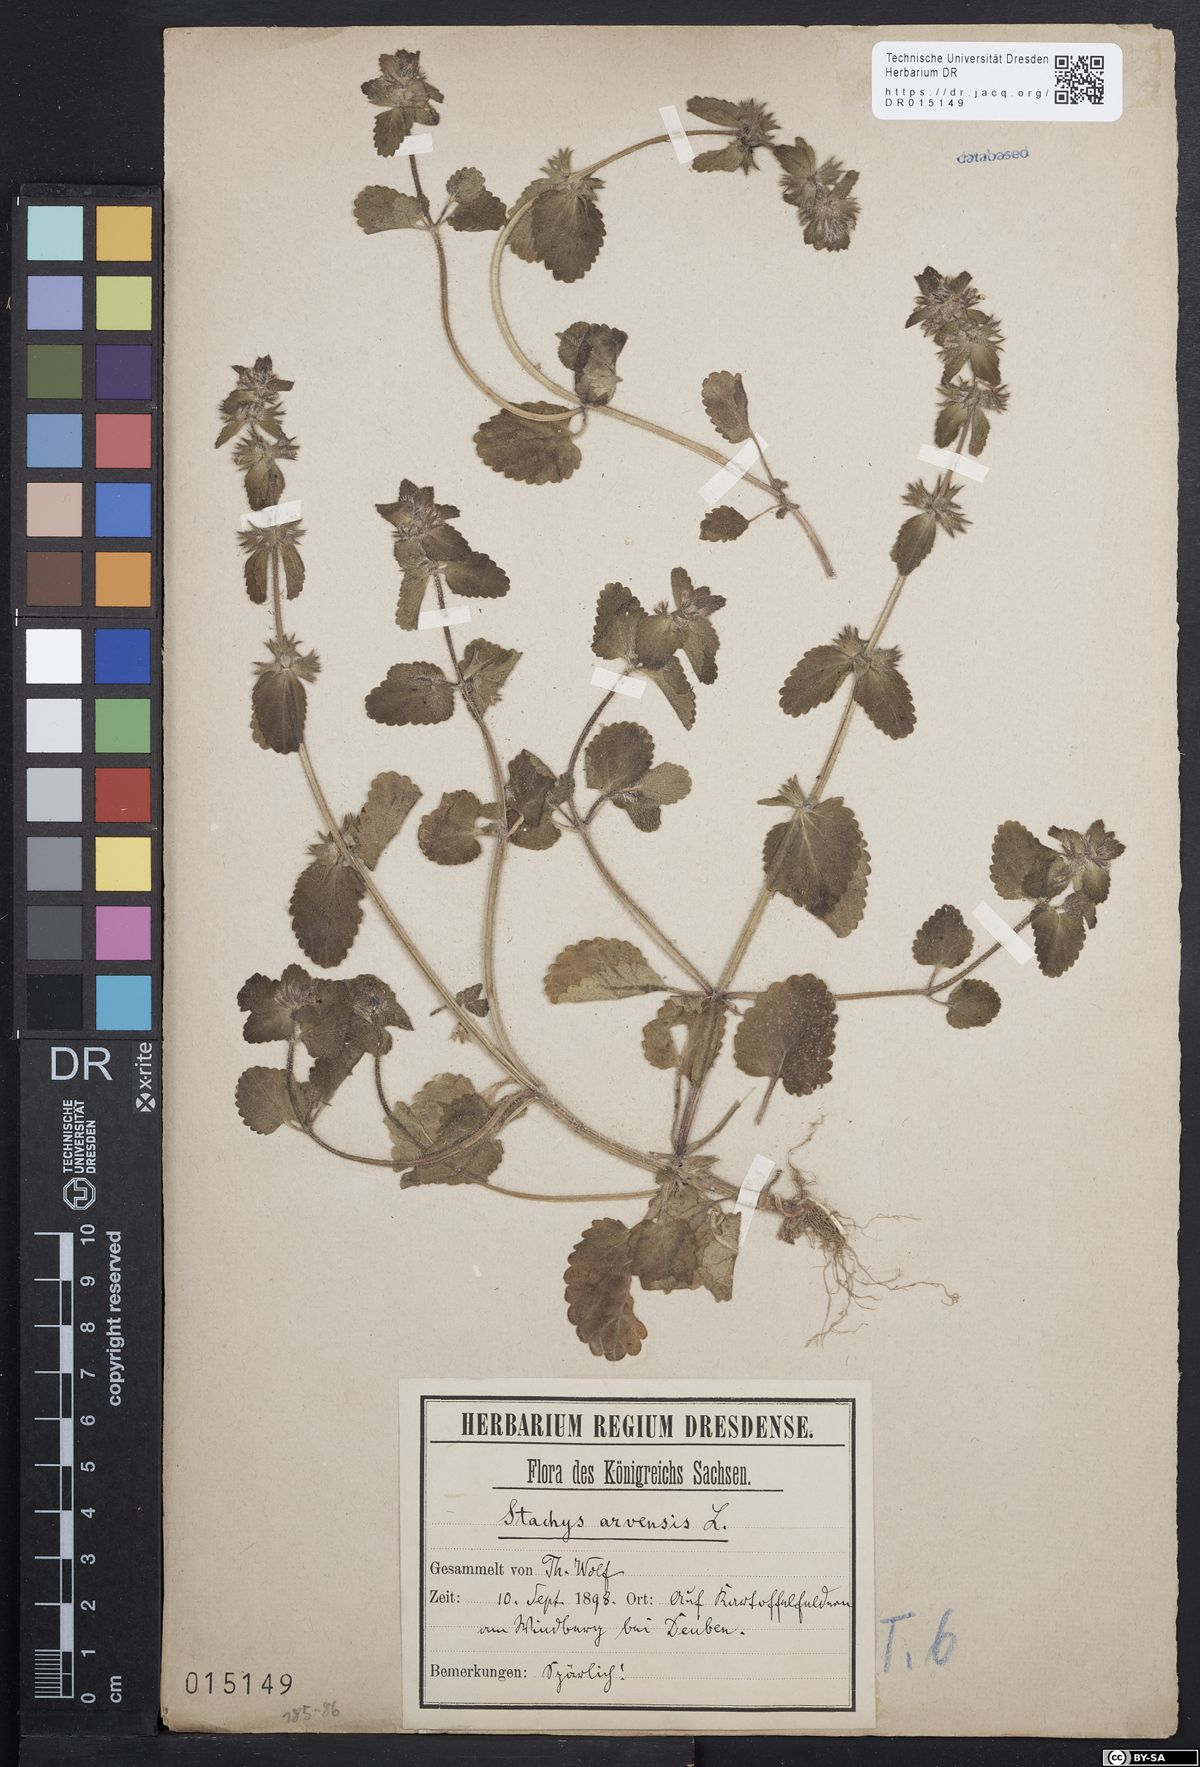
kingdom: Plantae
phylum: Tracheophyta
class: Magnoliopsida
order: Lamiales
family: Lamiaceae
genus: Stachys
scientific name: Stachys arvensis
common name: Field woundwort
